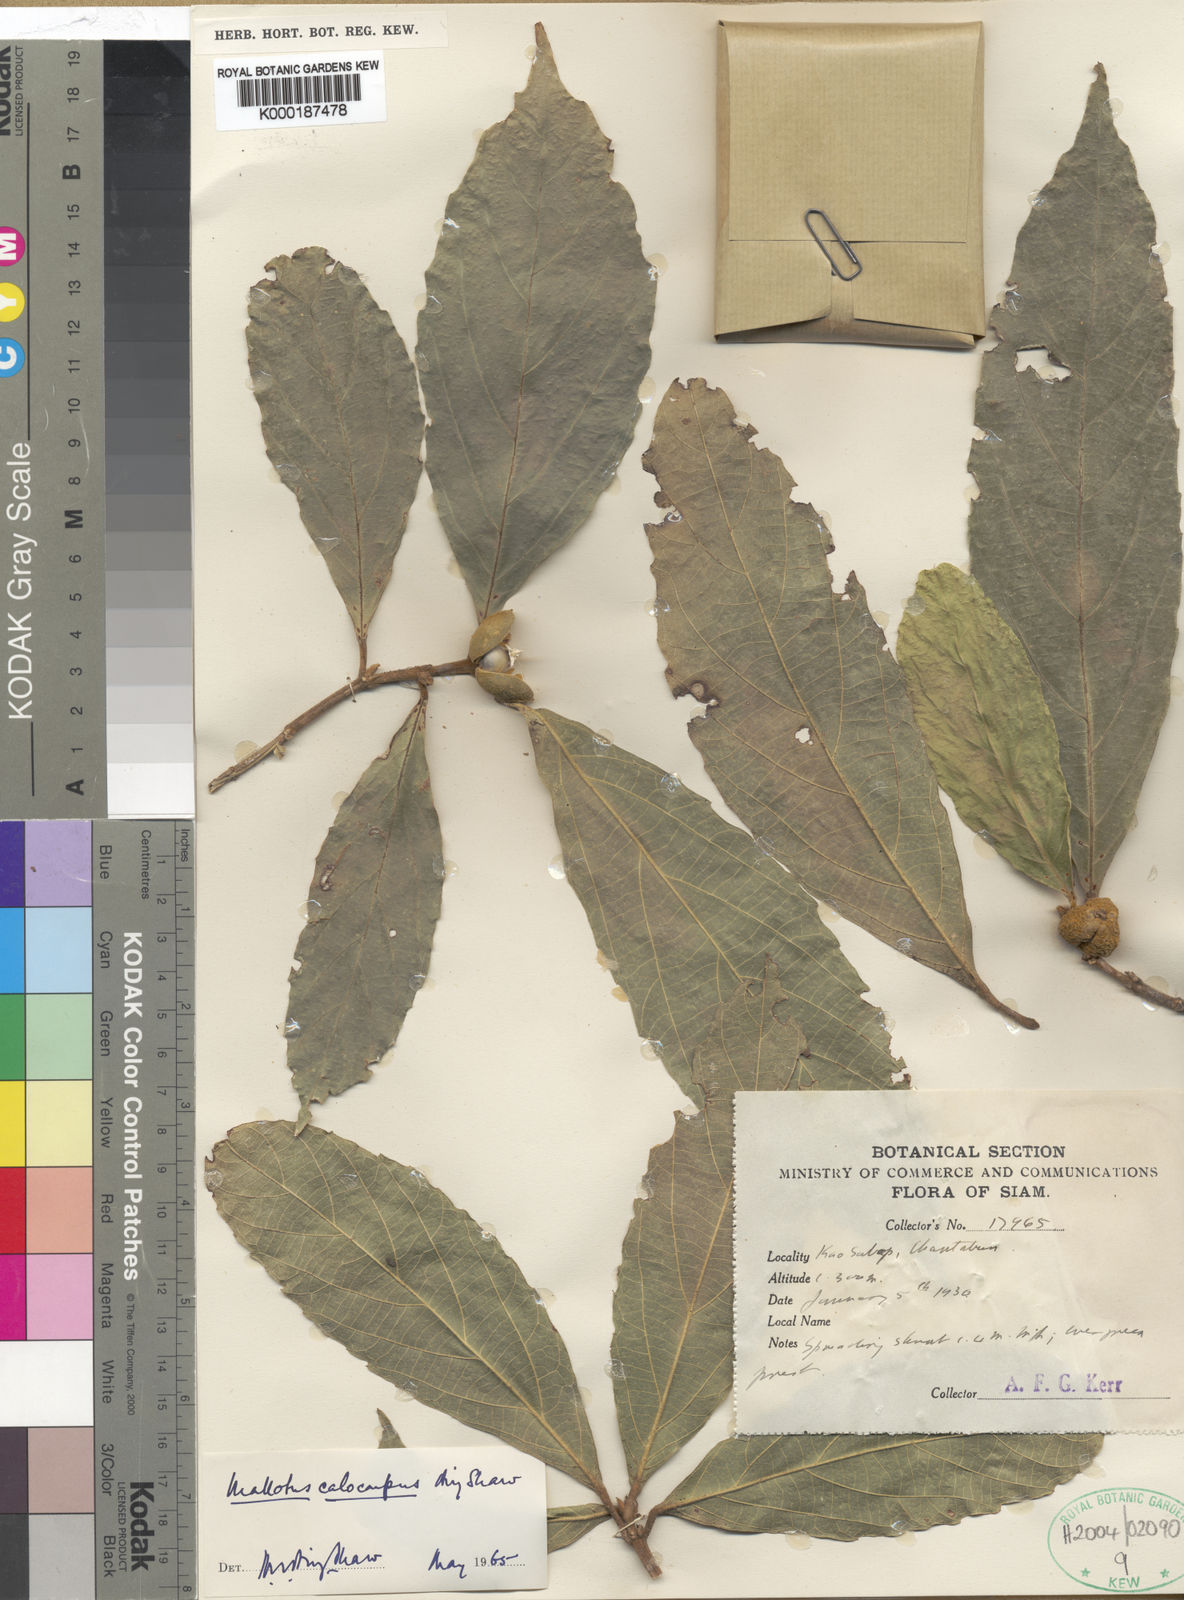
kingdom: Plantae
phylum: Tracheophyta
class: Magnoliopsida
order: Malpighiales
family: Euphorbiaceae
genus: Mallotus
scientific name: Mallotus calocarpus
